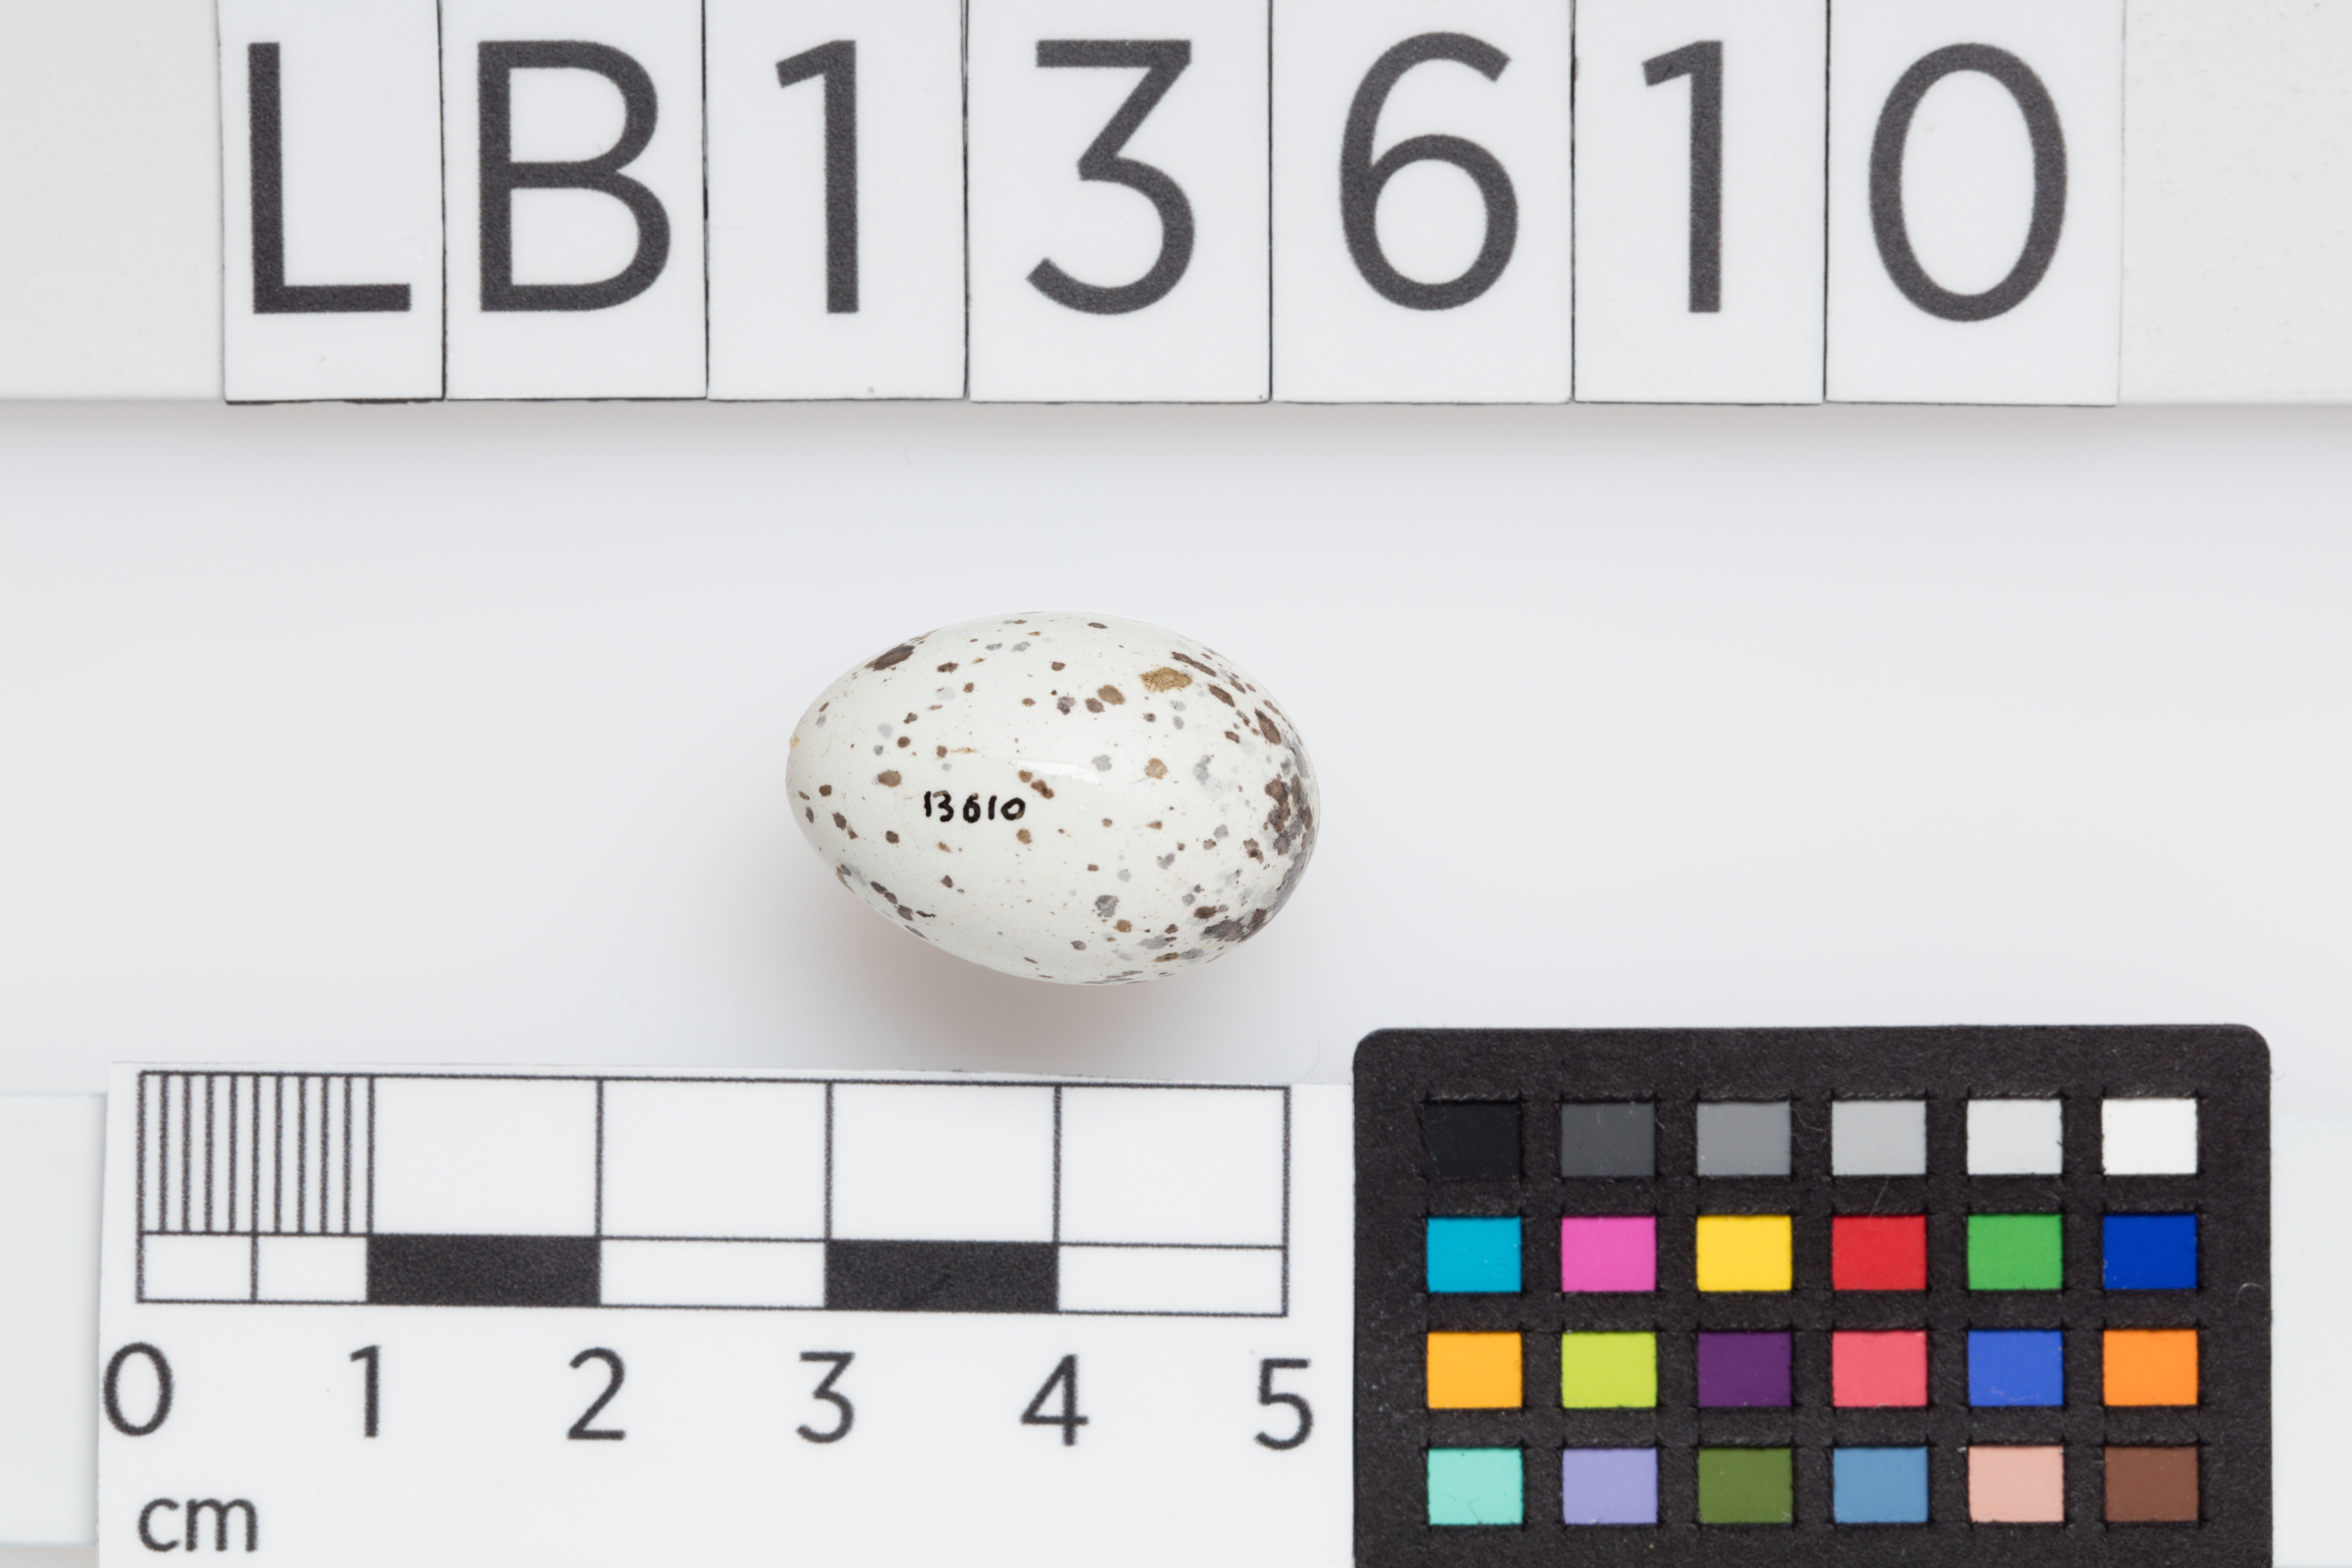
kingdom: Animalia
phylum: Chordata
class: Aves
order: Passeriformes
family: Passeridae
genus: Passer
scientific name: Passer domesticus
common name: House sparrow
